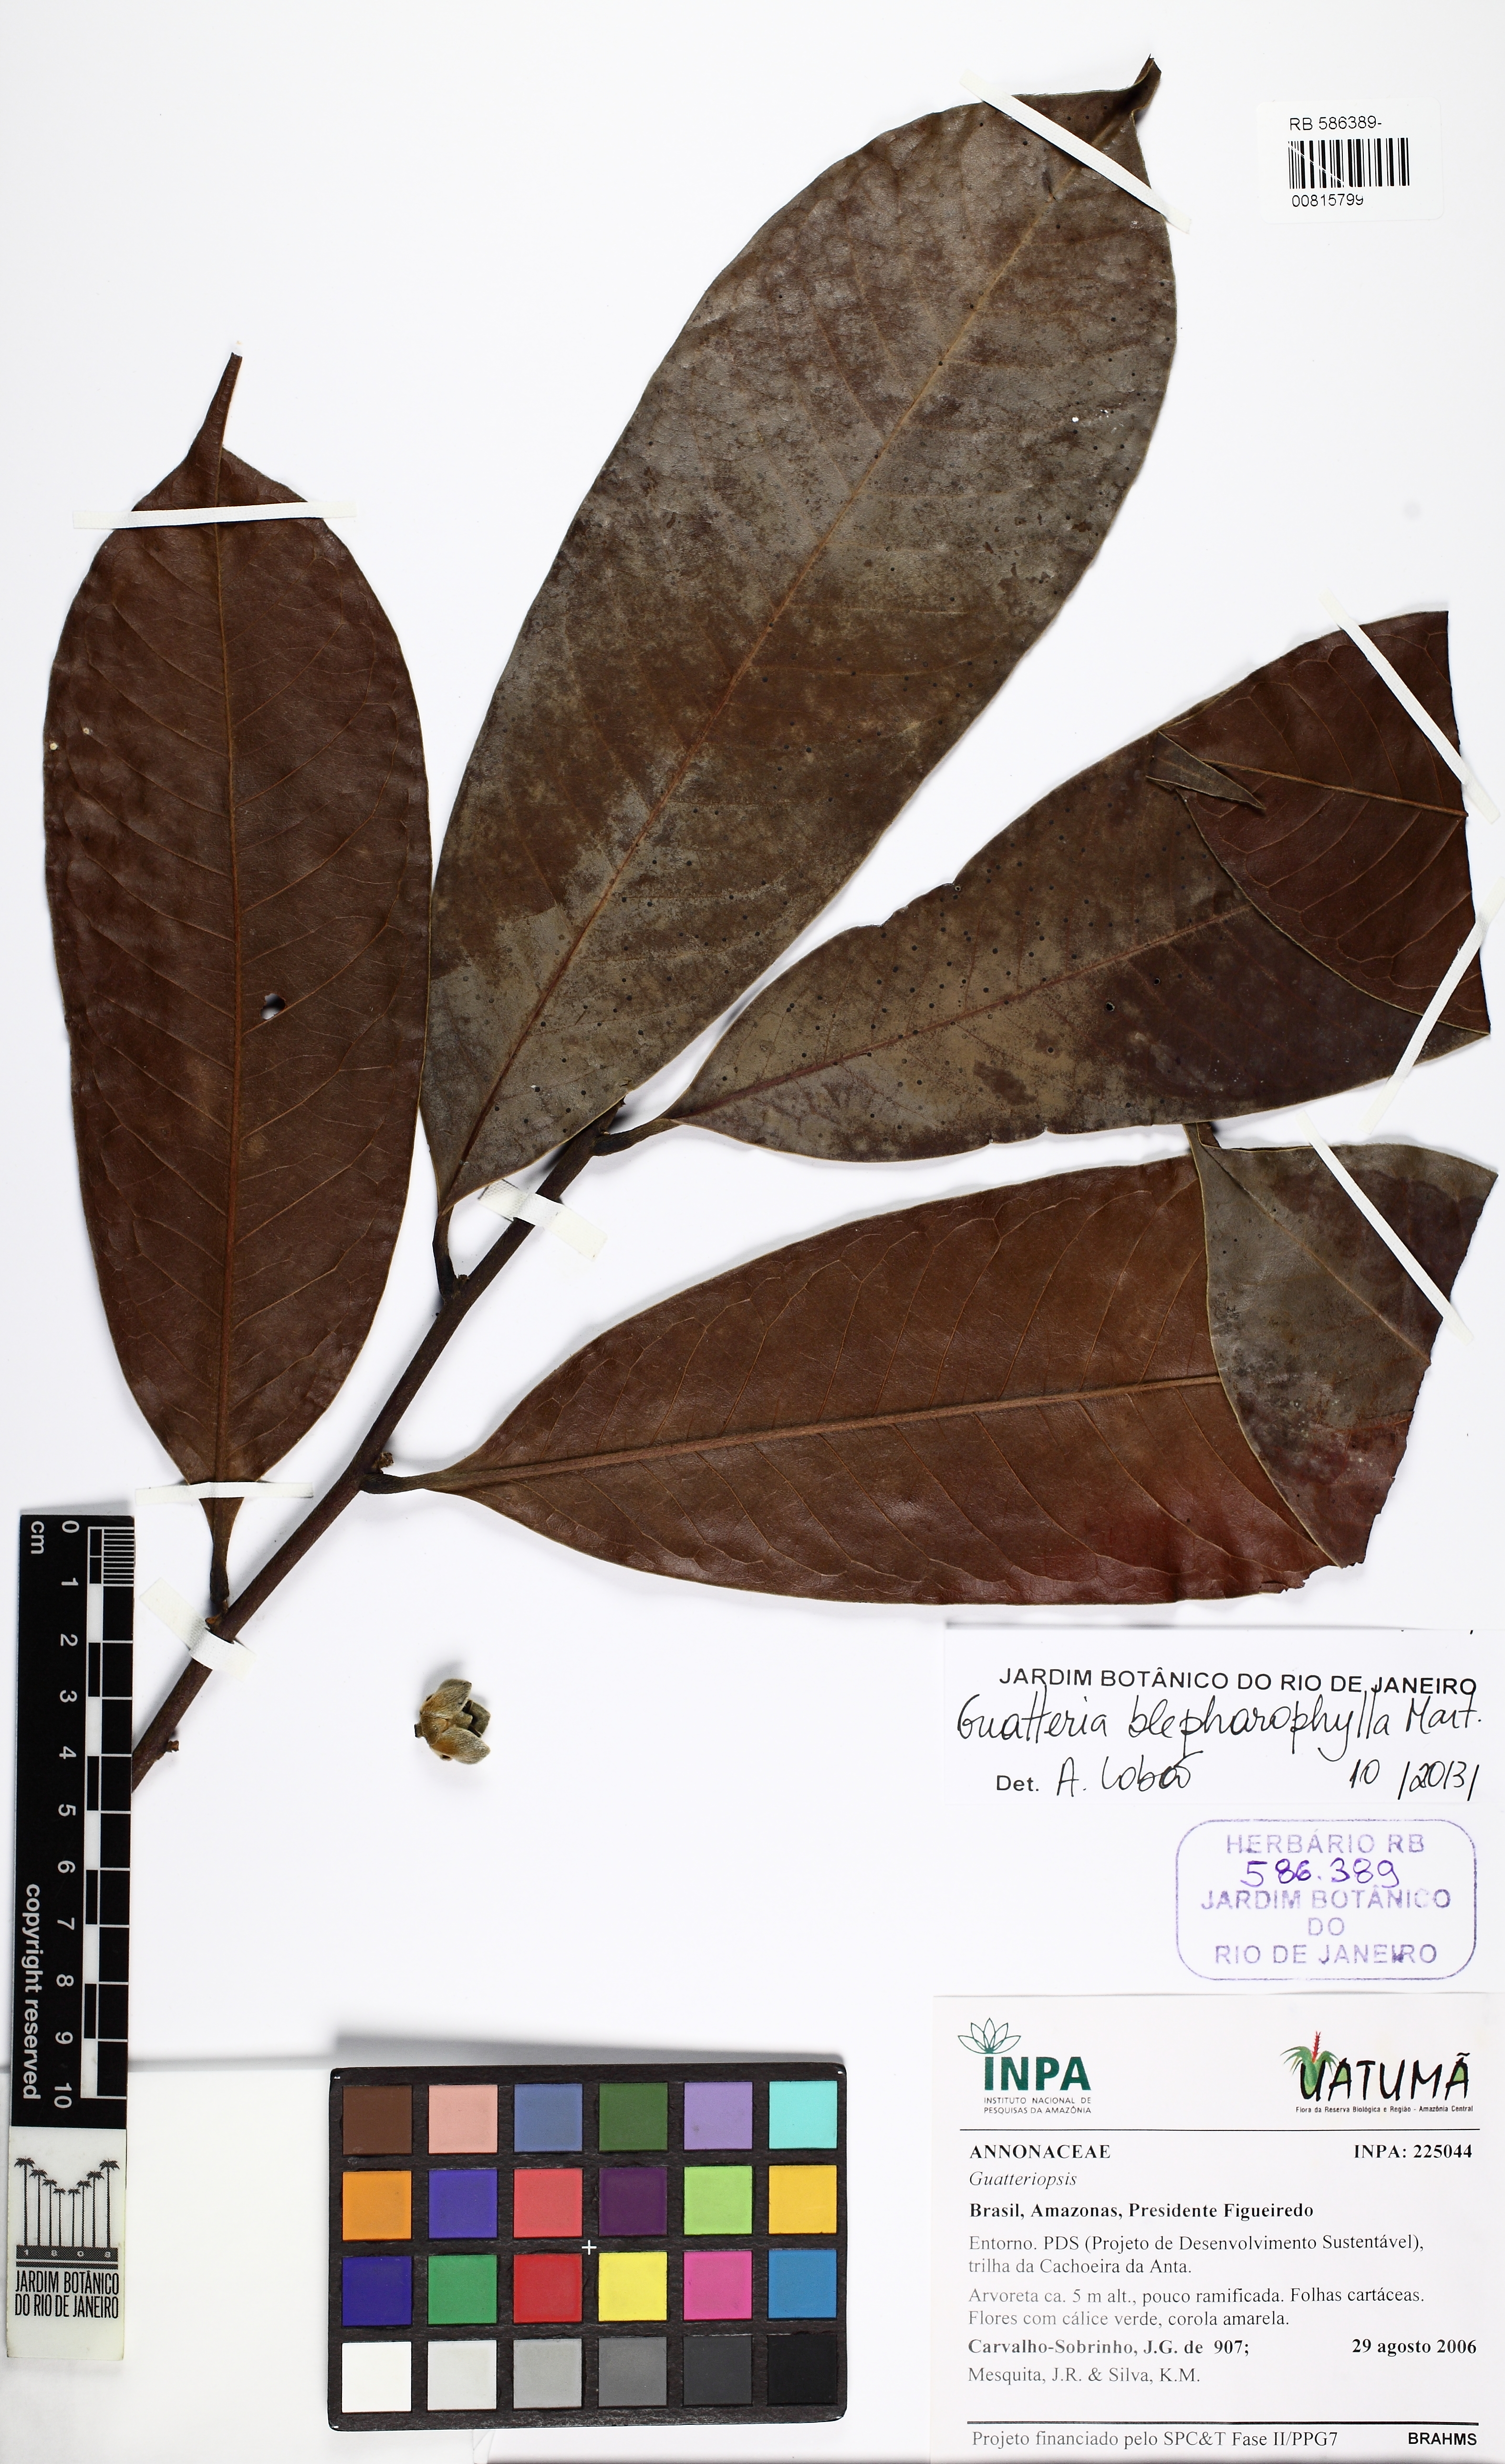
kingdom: Plantae
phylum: Tracheophyta
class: Magnoliopsida
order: Magnoliales
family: Annonaceae
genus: Guatteria
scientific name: Guatteria blepharophylla
